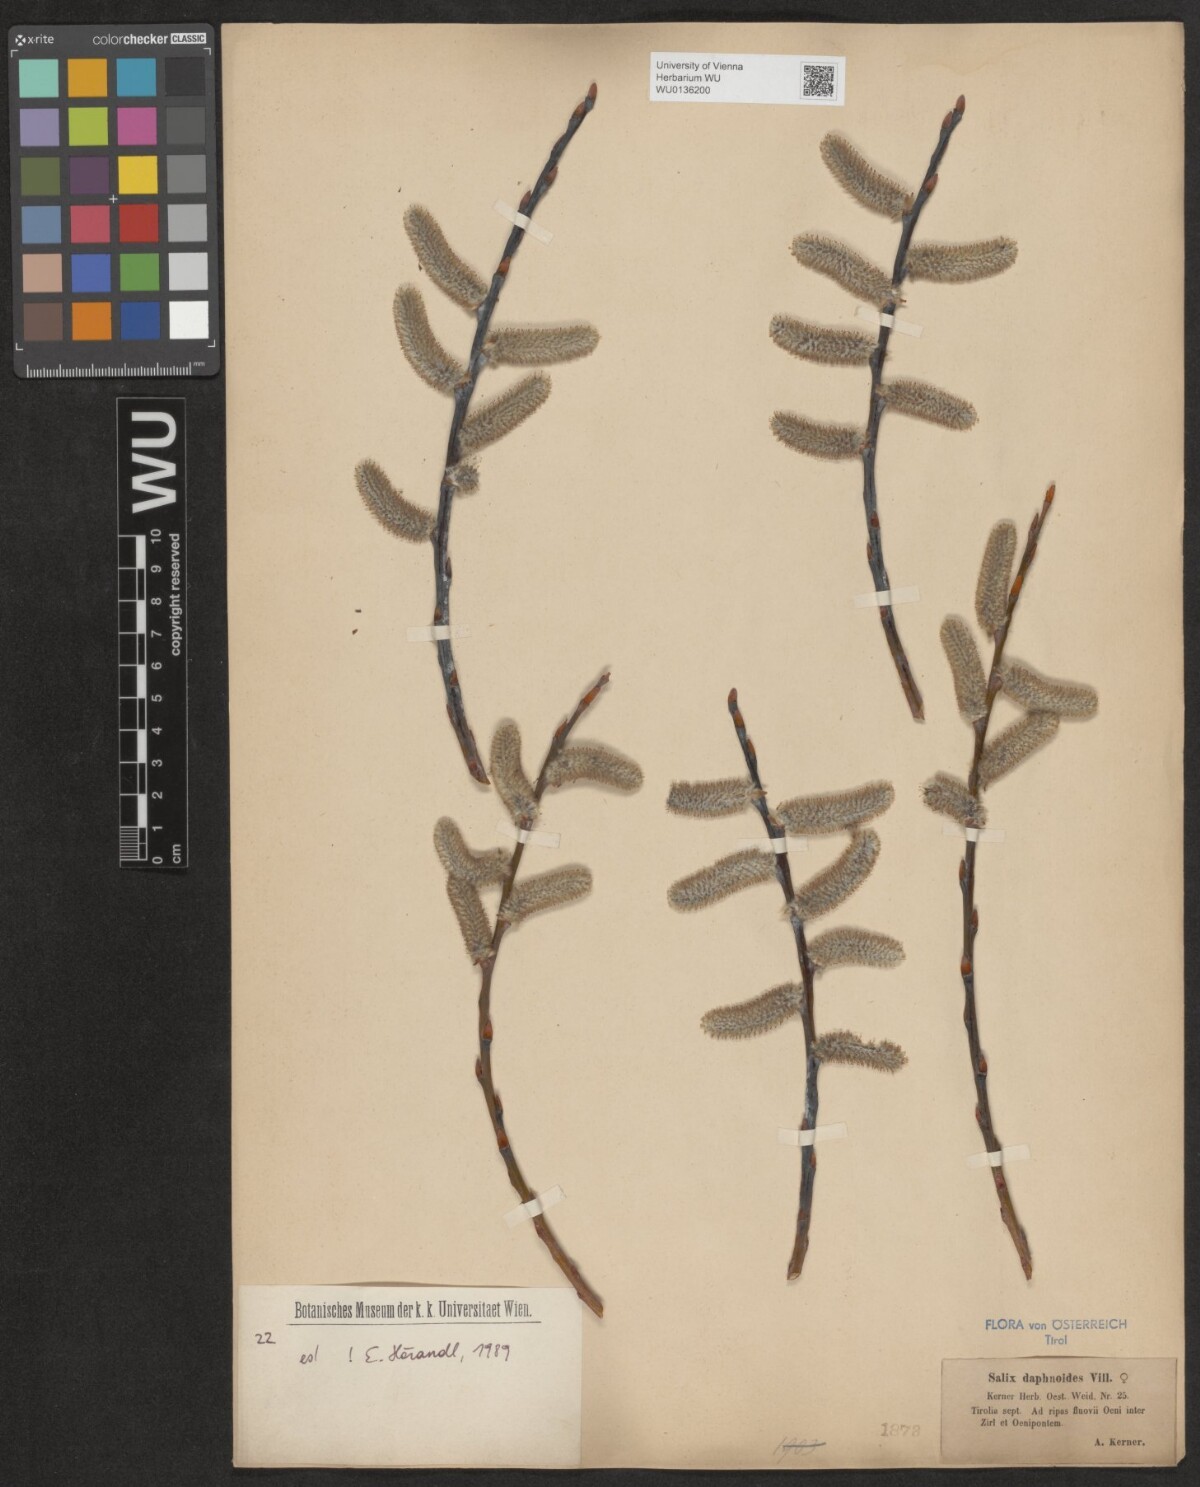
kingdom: Plantae
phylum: Tracheophyta
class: Magnoliopsida
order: Malpighiales
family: Salicaceae
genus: Salix
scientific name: Salix daphnoides
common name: European violet-willow
